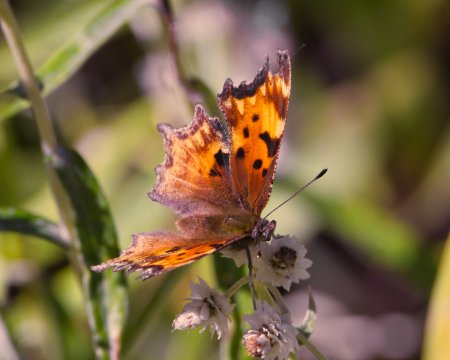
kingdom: Animalia
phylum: Arthropoda
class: Insecta
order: Lepidoptera
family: Nymphalidae
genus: Polygonia
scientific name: Polygonia gracilis
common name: Hoary Comma
